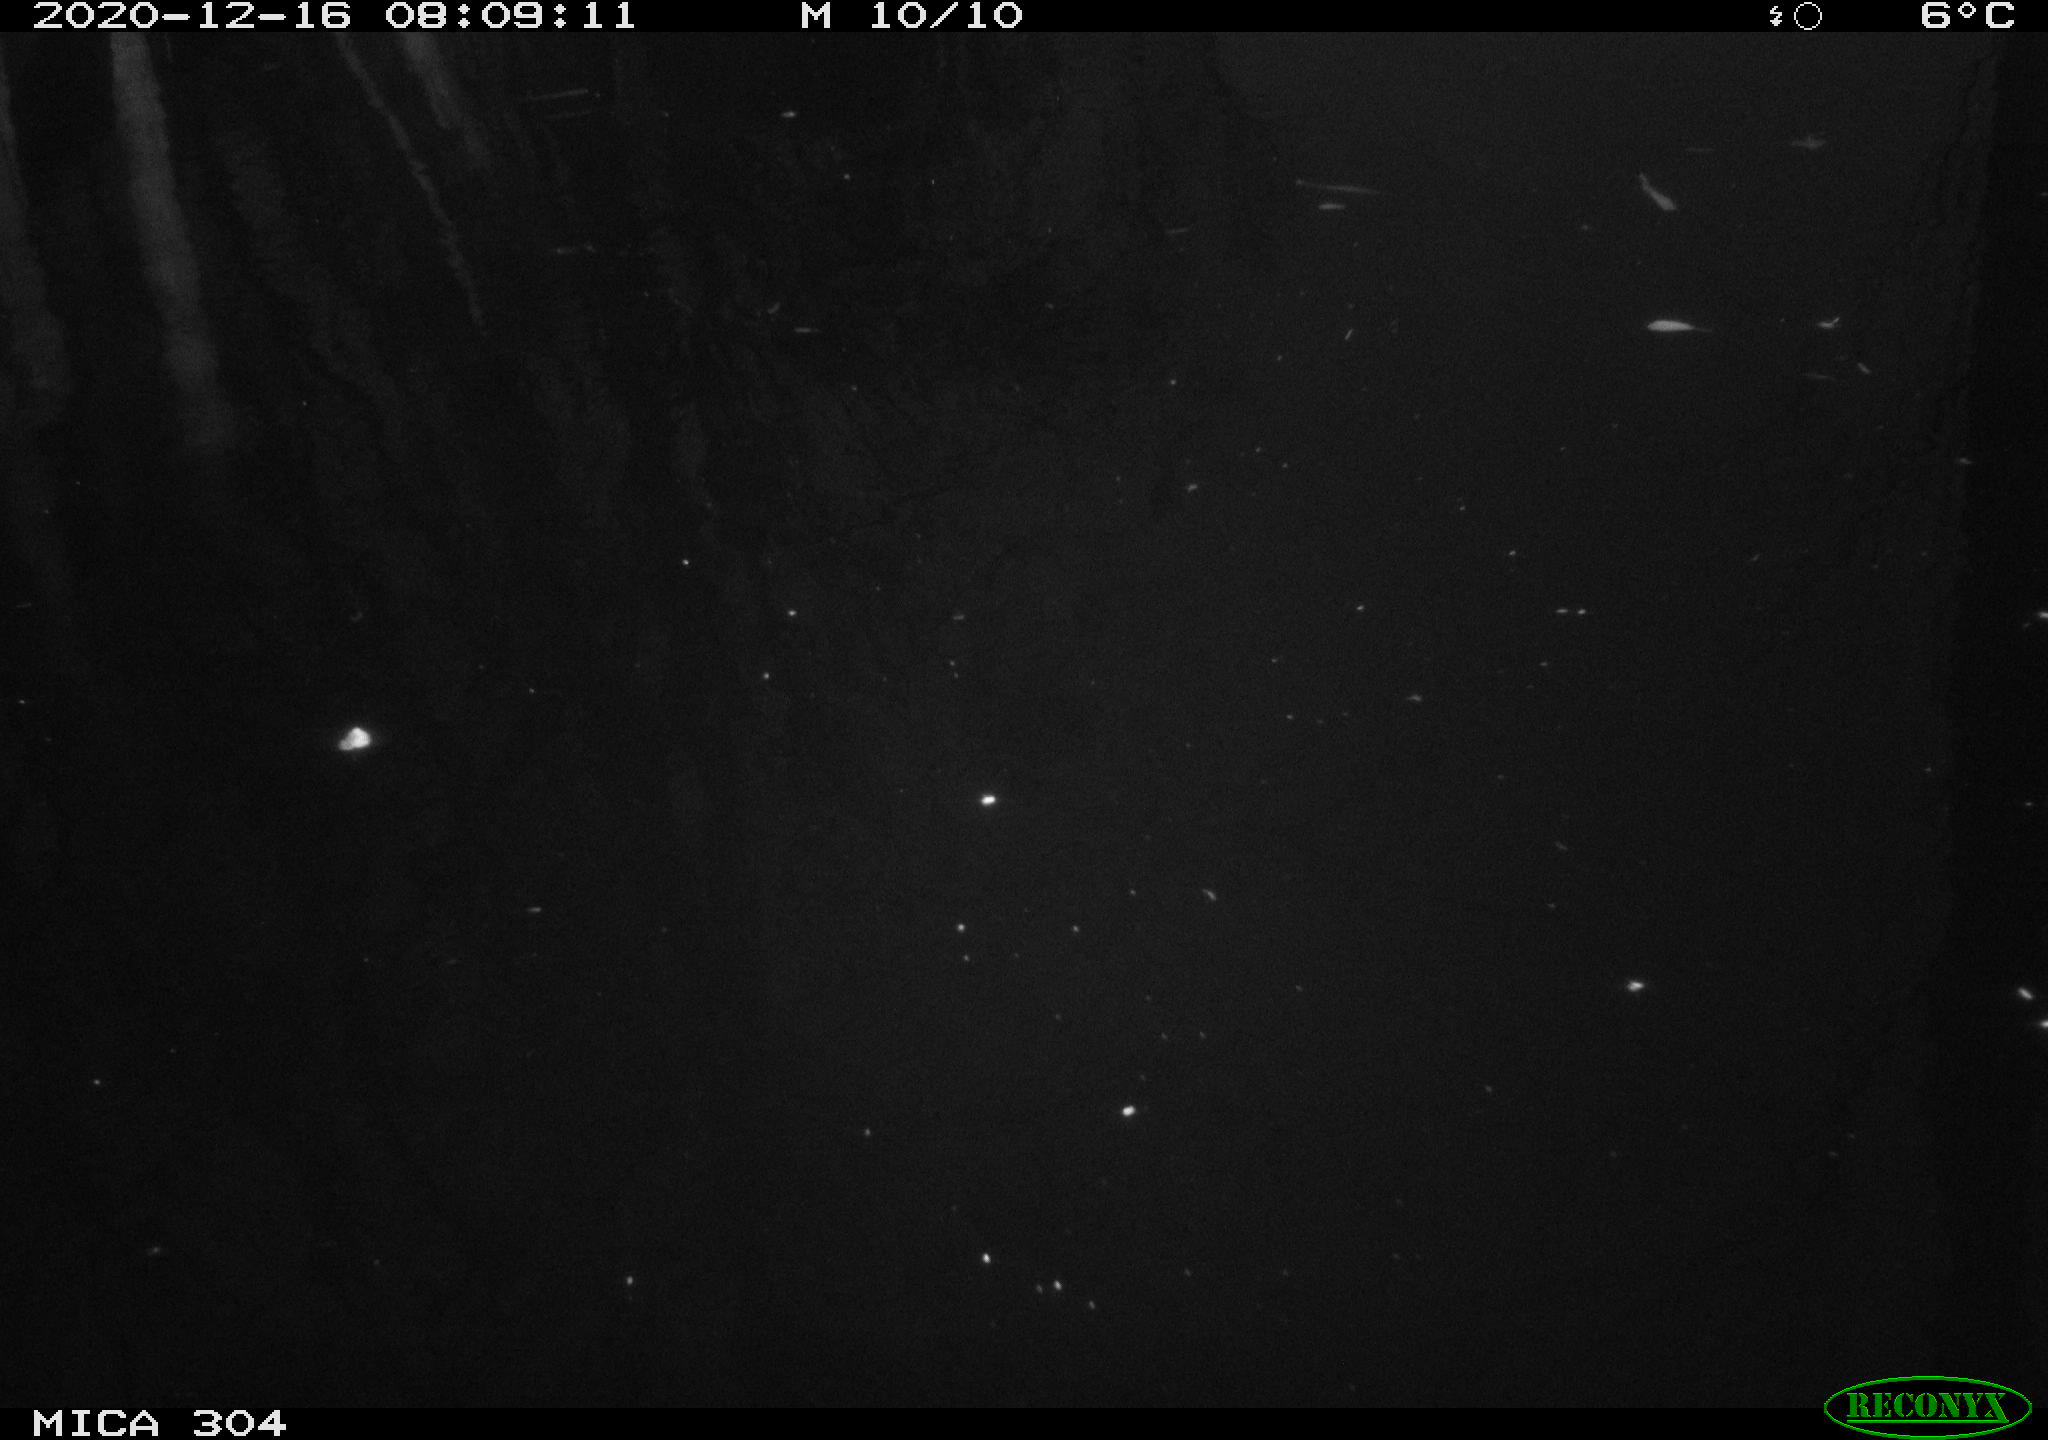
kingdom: Animalia
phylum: Chordata
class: Aves
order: Gruiformes
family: Rallidae
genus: Gallinula
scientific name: Gallinula chloropus
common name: Common moorhen
